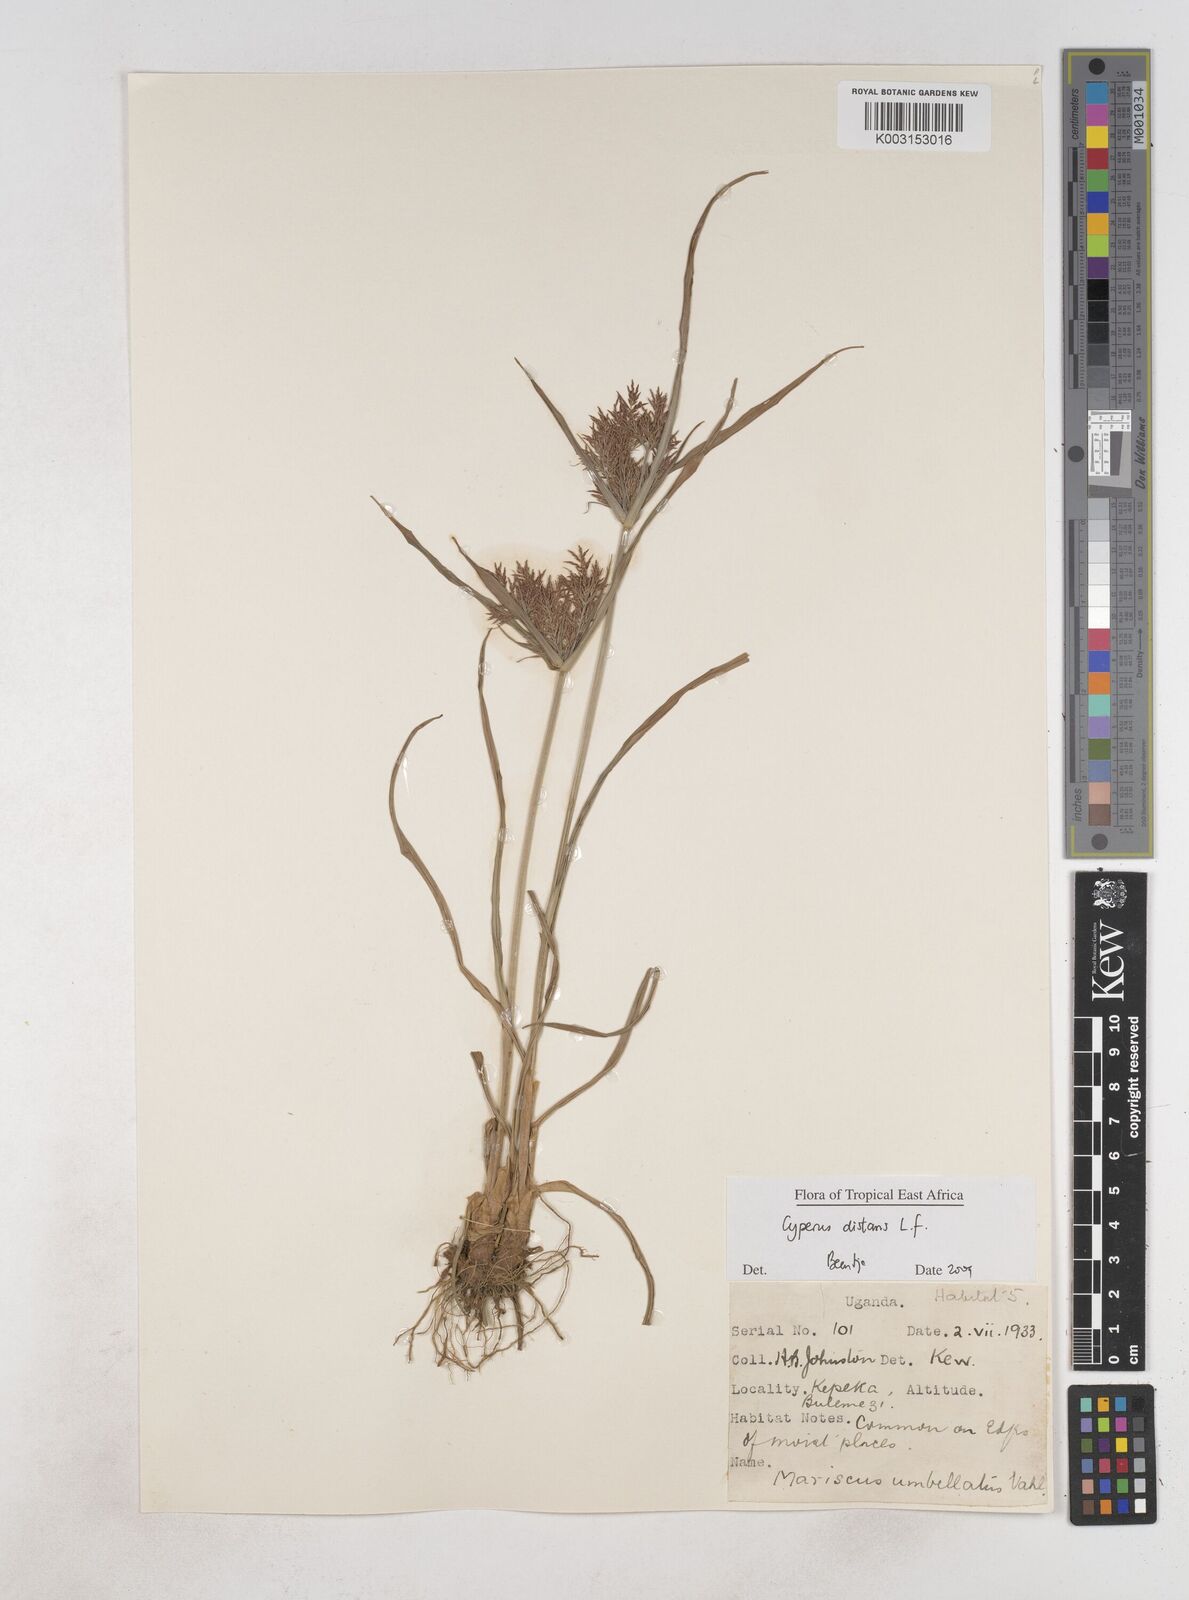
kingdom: Plantae
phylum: Tracheophyta
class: Liliopsida
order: Poales
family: Cyperaceae
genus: Cyperus
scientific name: Cyperus distans
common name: Slender cyperus
